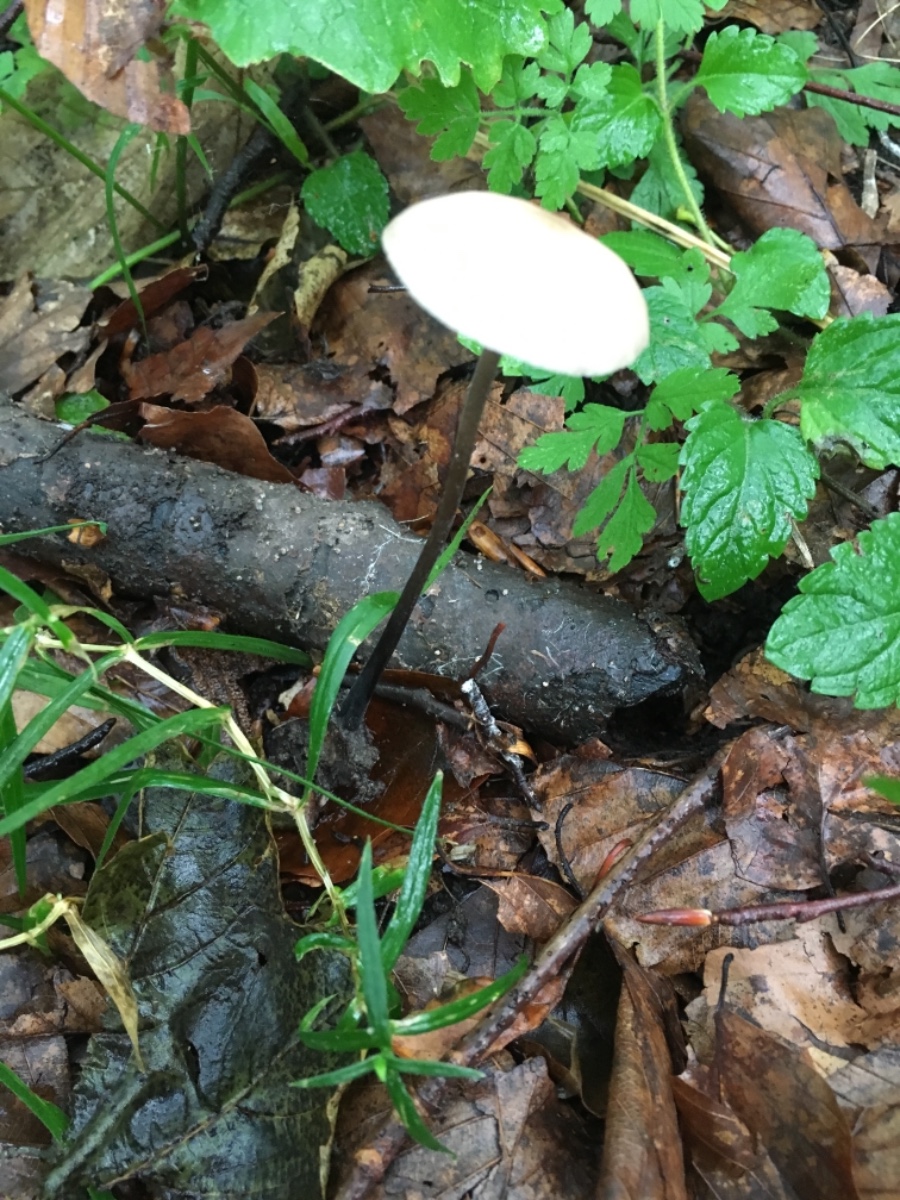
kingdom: Fungi
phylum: Basidiomycota
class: Agaricomycetes
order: Agaricales
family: Omphalotaceae
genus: Mycetinis
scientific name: Mycetinis alliaceus
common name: stor løghat
